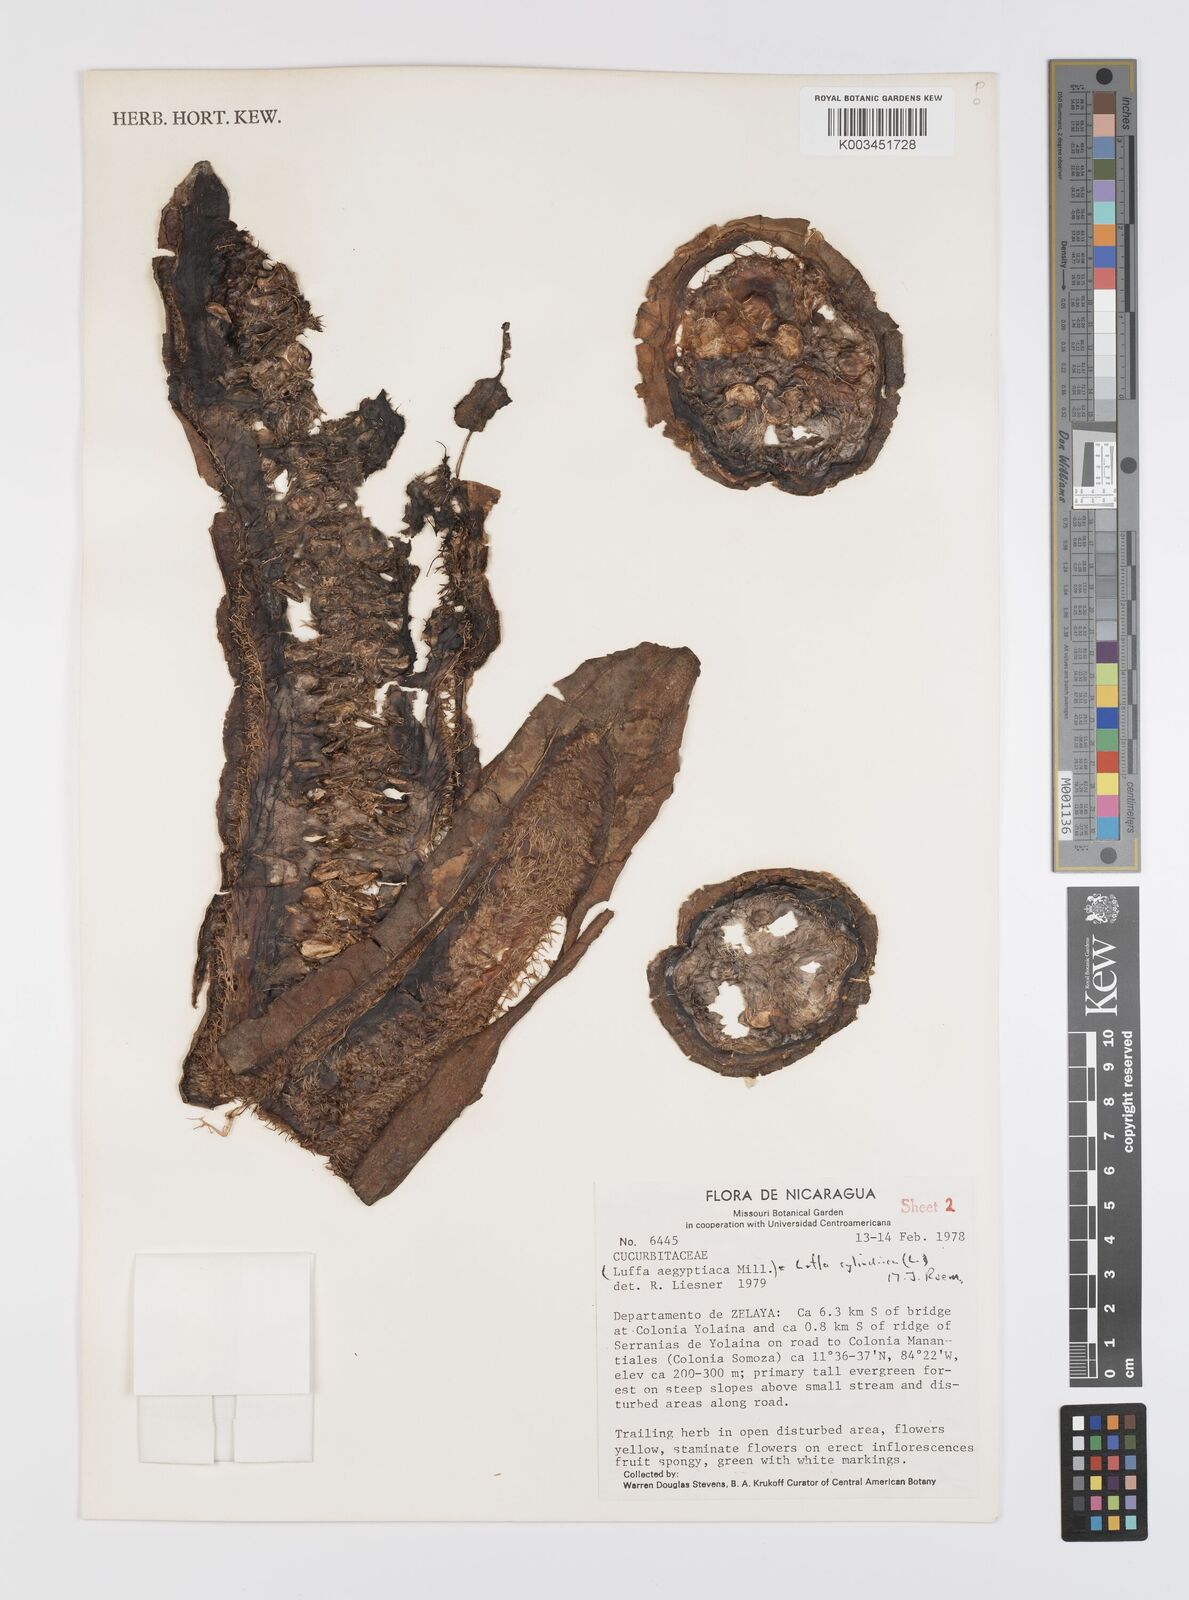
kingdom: Plantae
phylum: Tracheophyta
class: Magnoliopsida
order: Cucurbitales
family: Cucurbitaceae
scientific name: Cucurbitaceae
